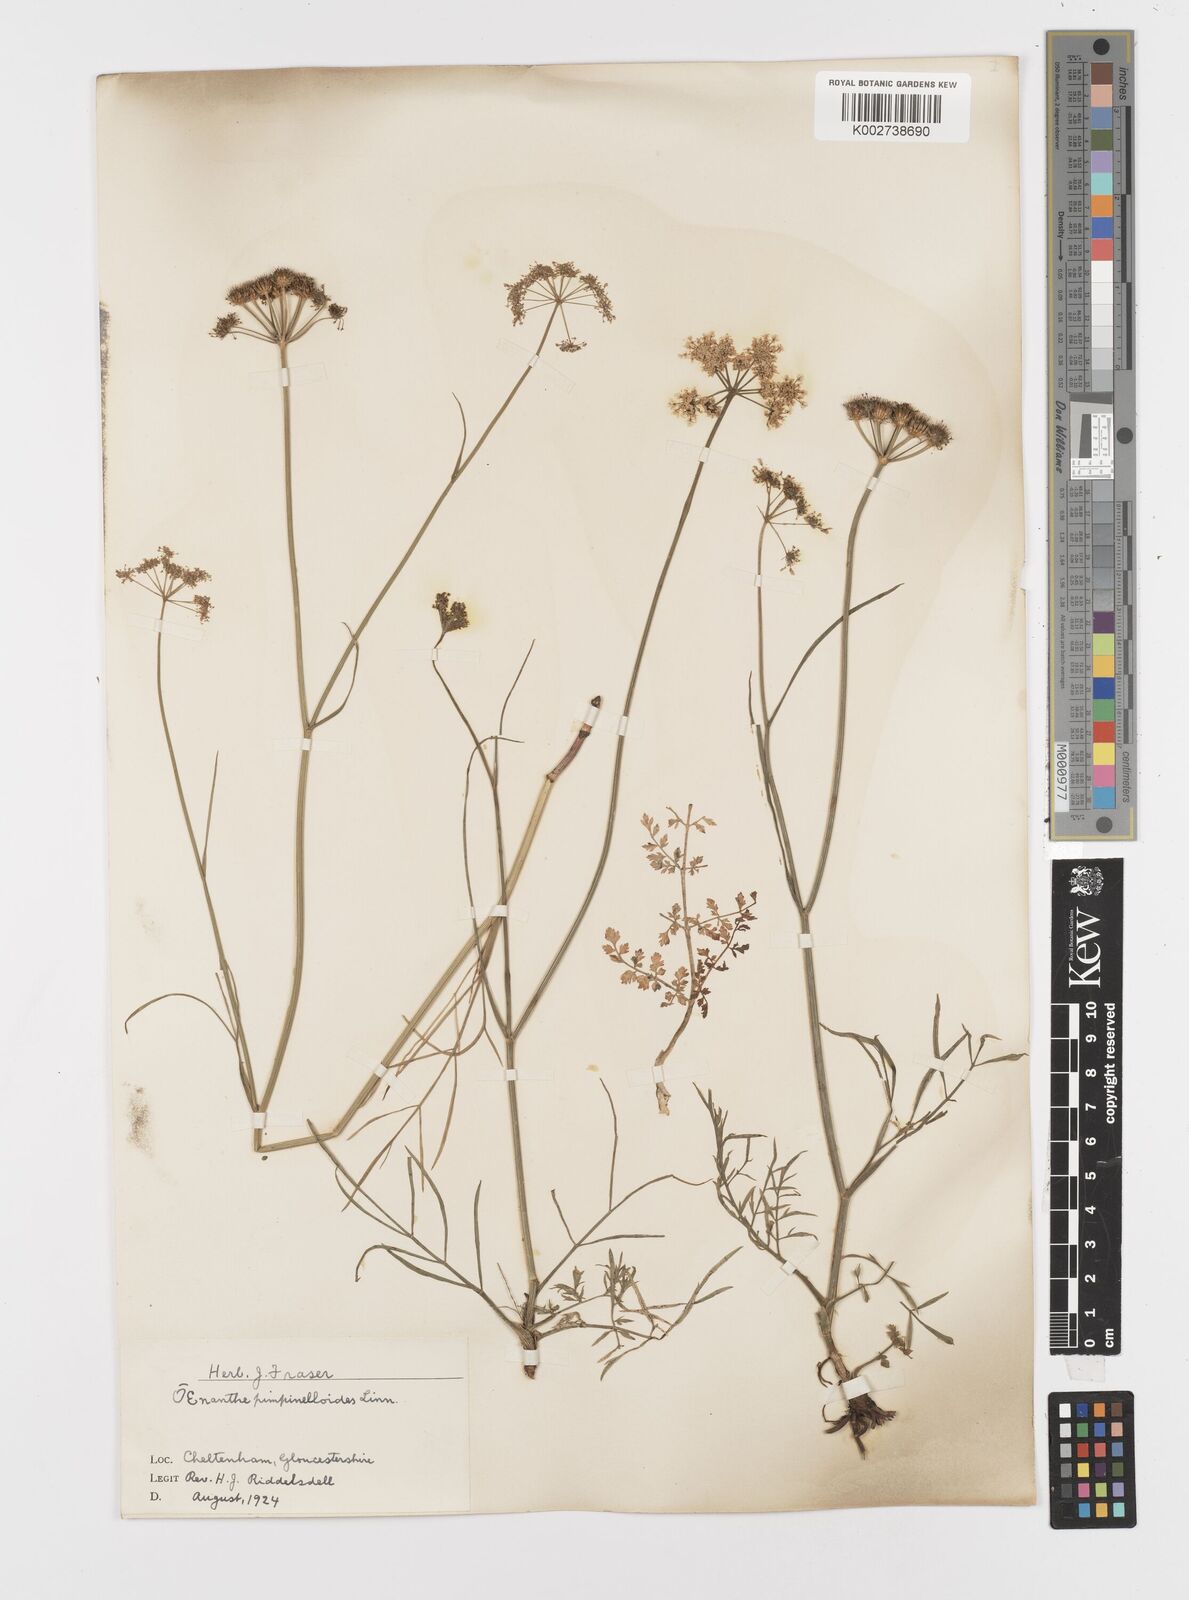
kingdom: Plantae
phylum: Tracheophyta
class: Magnoliopsida
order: Apiales
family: Apiaceae
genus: Oenanthe
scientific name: Oenanthe pimpinelloides
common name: Corky-fruited water-dropwort
